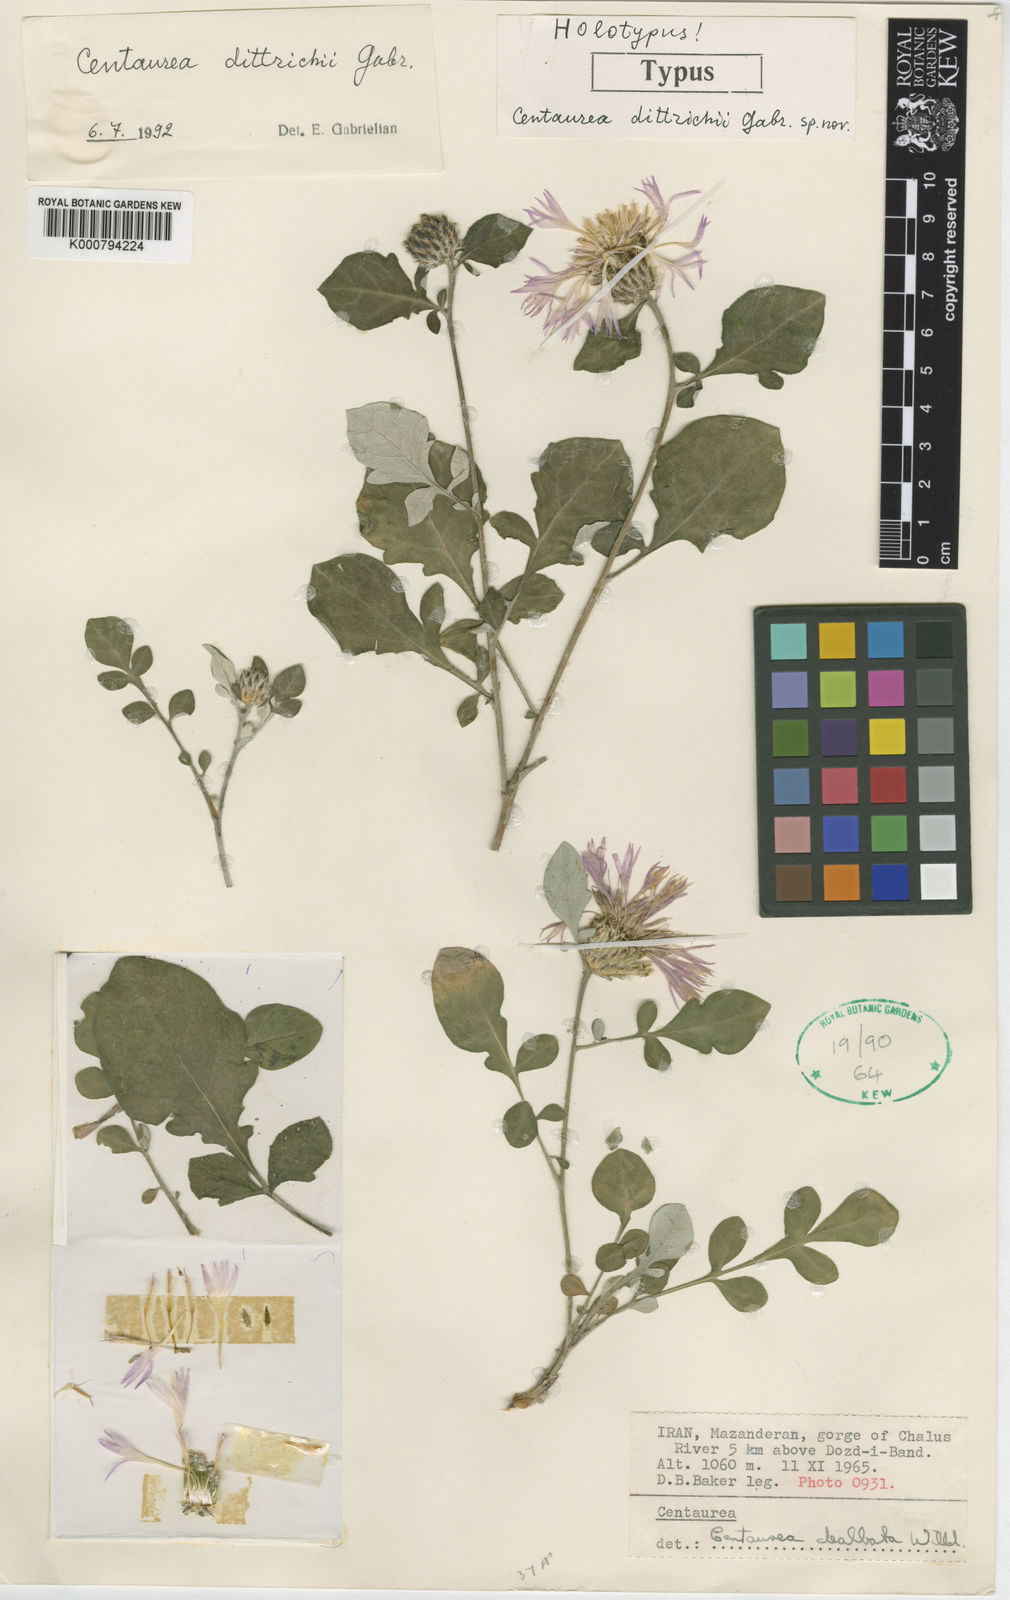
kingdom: Plantae
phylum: Tracheophyta
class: Magnoliopsida
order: Asterales
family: Asteraceae
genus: Psephellus
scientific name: Psephellus dealbatus
